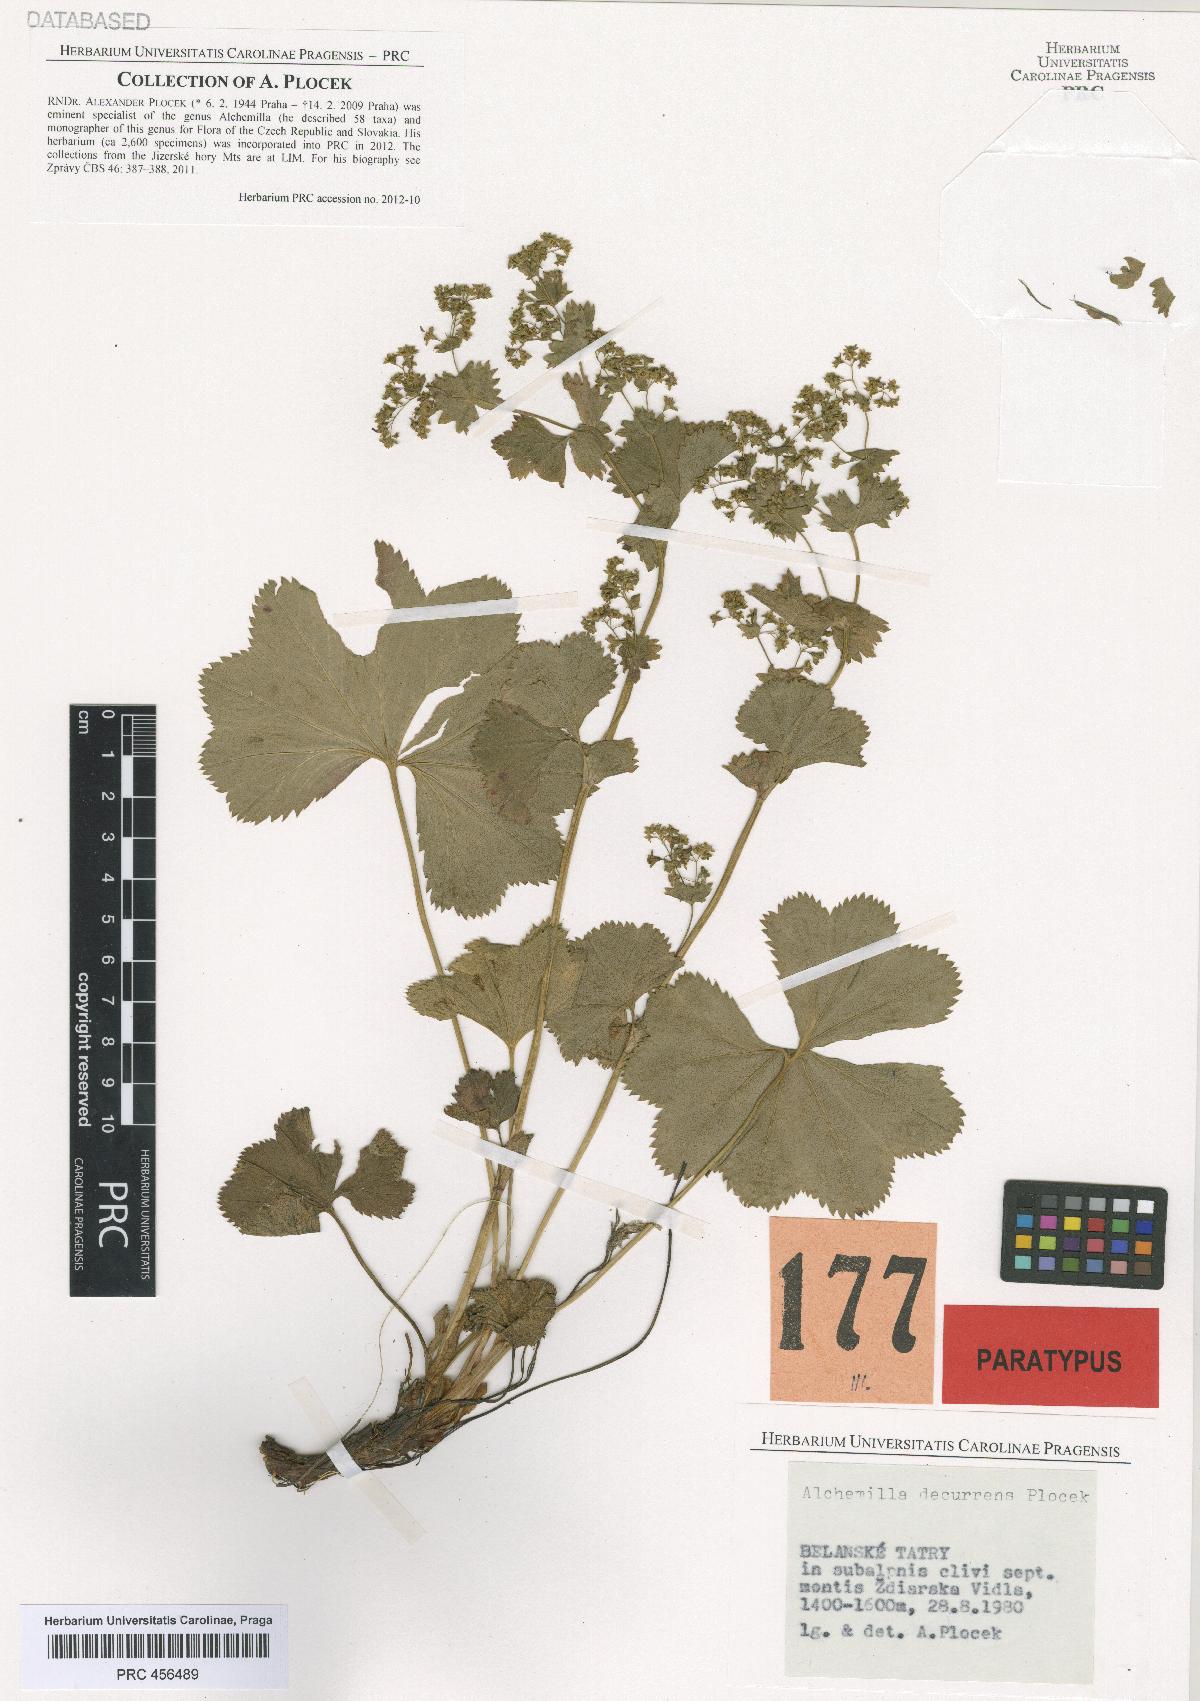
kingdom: Plantae
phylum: Tracheophyta
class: Magnoliopsida
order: Rosales
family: Rosaceae
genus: Alchemilla
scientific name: Alchemilla decurrens
